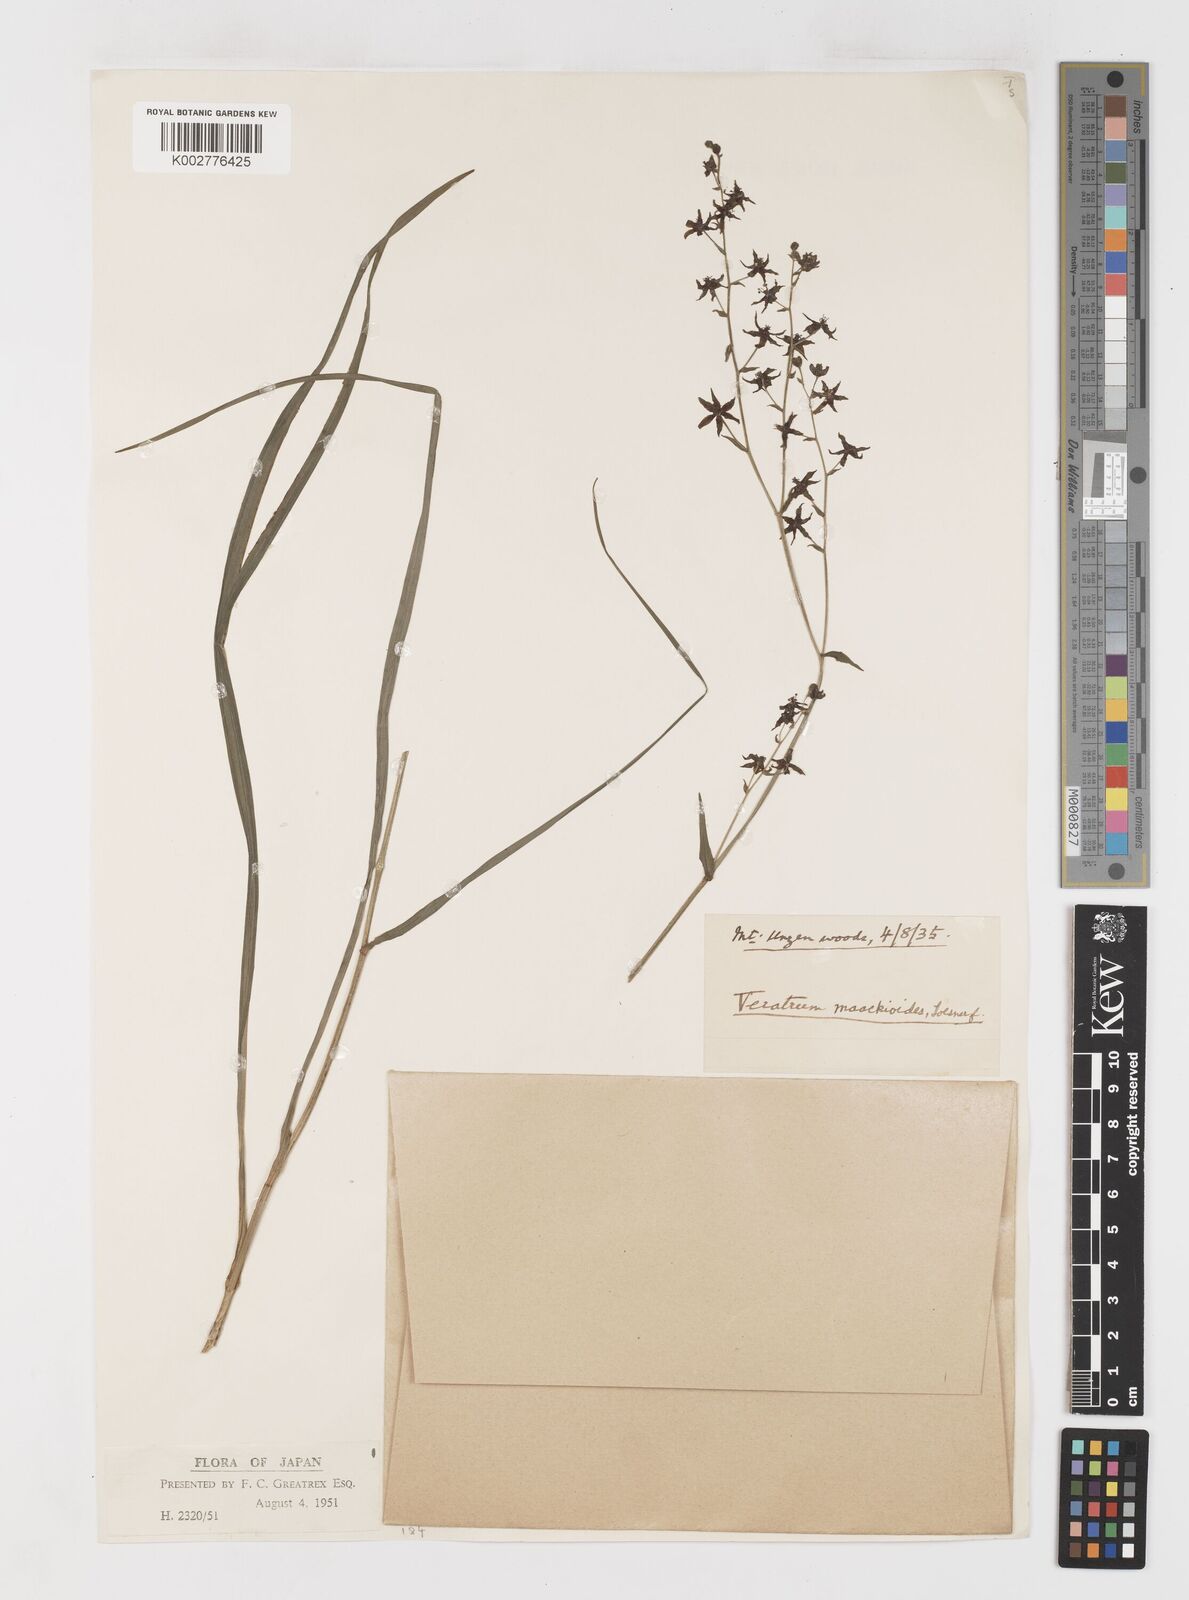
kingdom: Plantae
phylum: Tracheophyta
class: Liliopsida
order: Liliales
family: Melanthiaceae
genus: Veratrum
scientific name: Veratrum maackii
